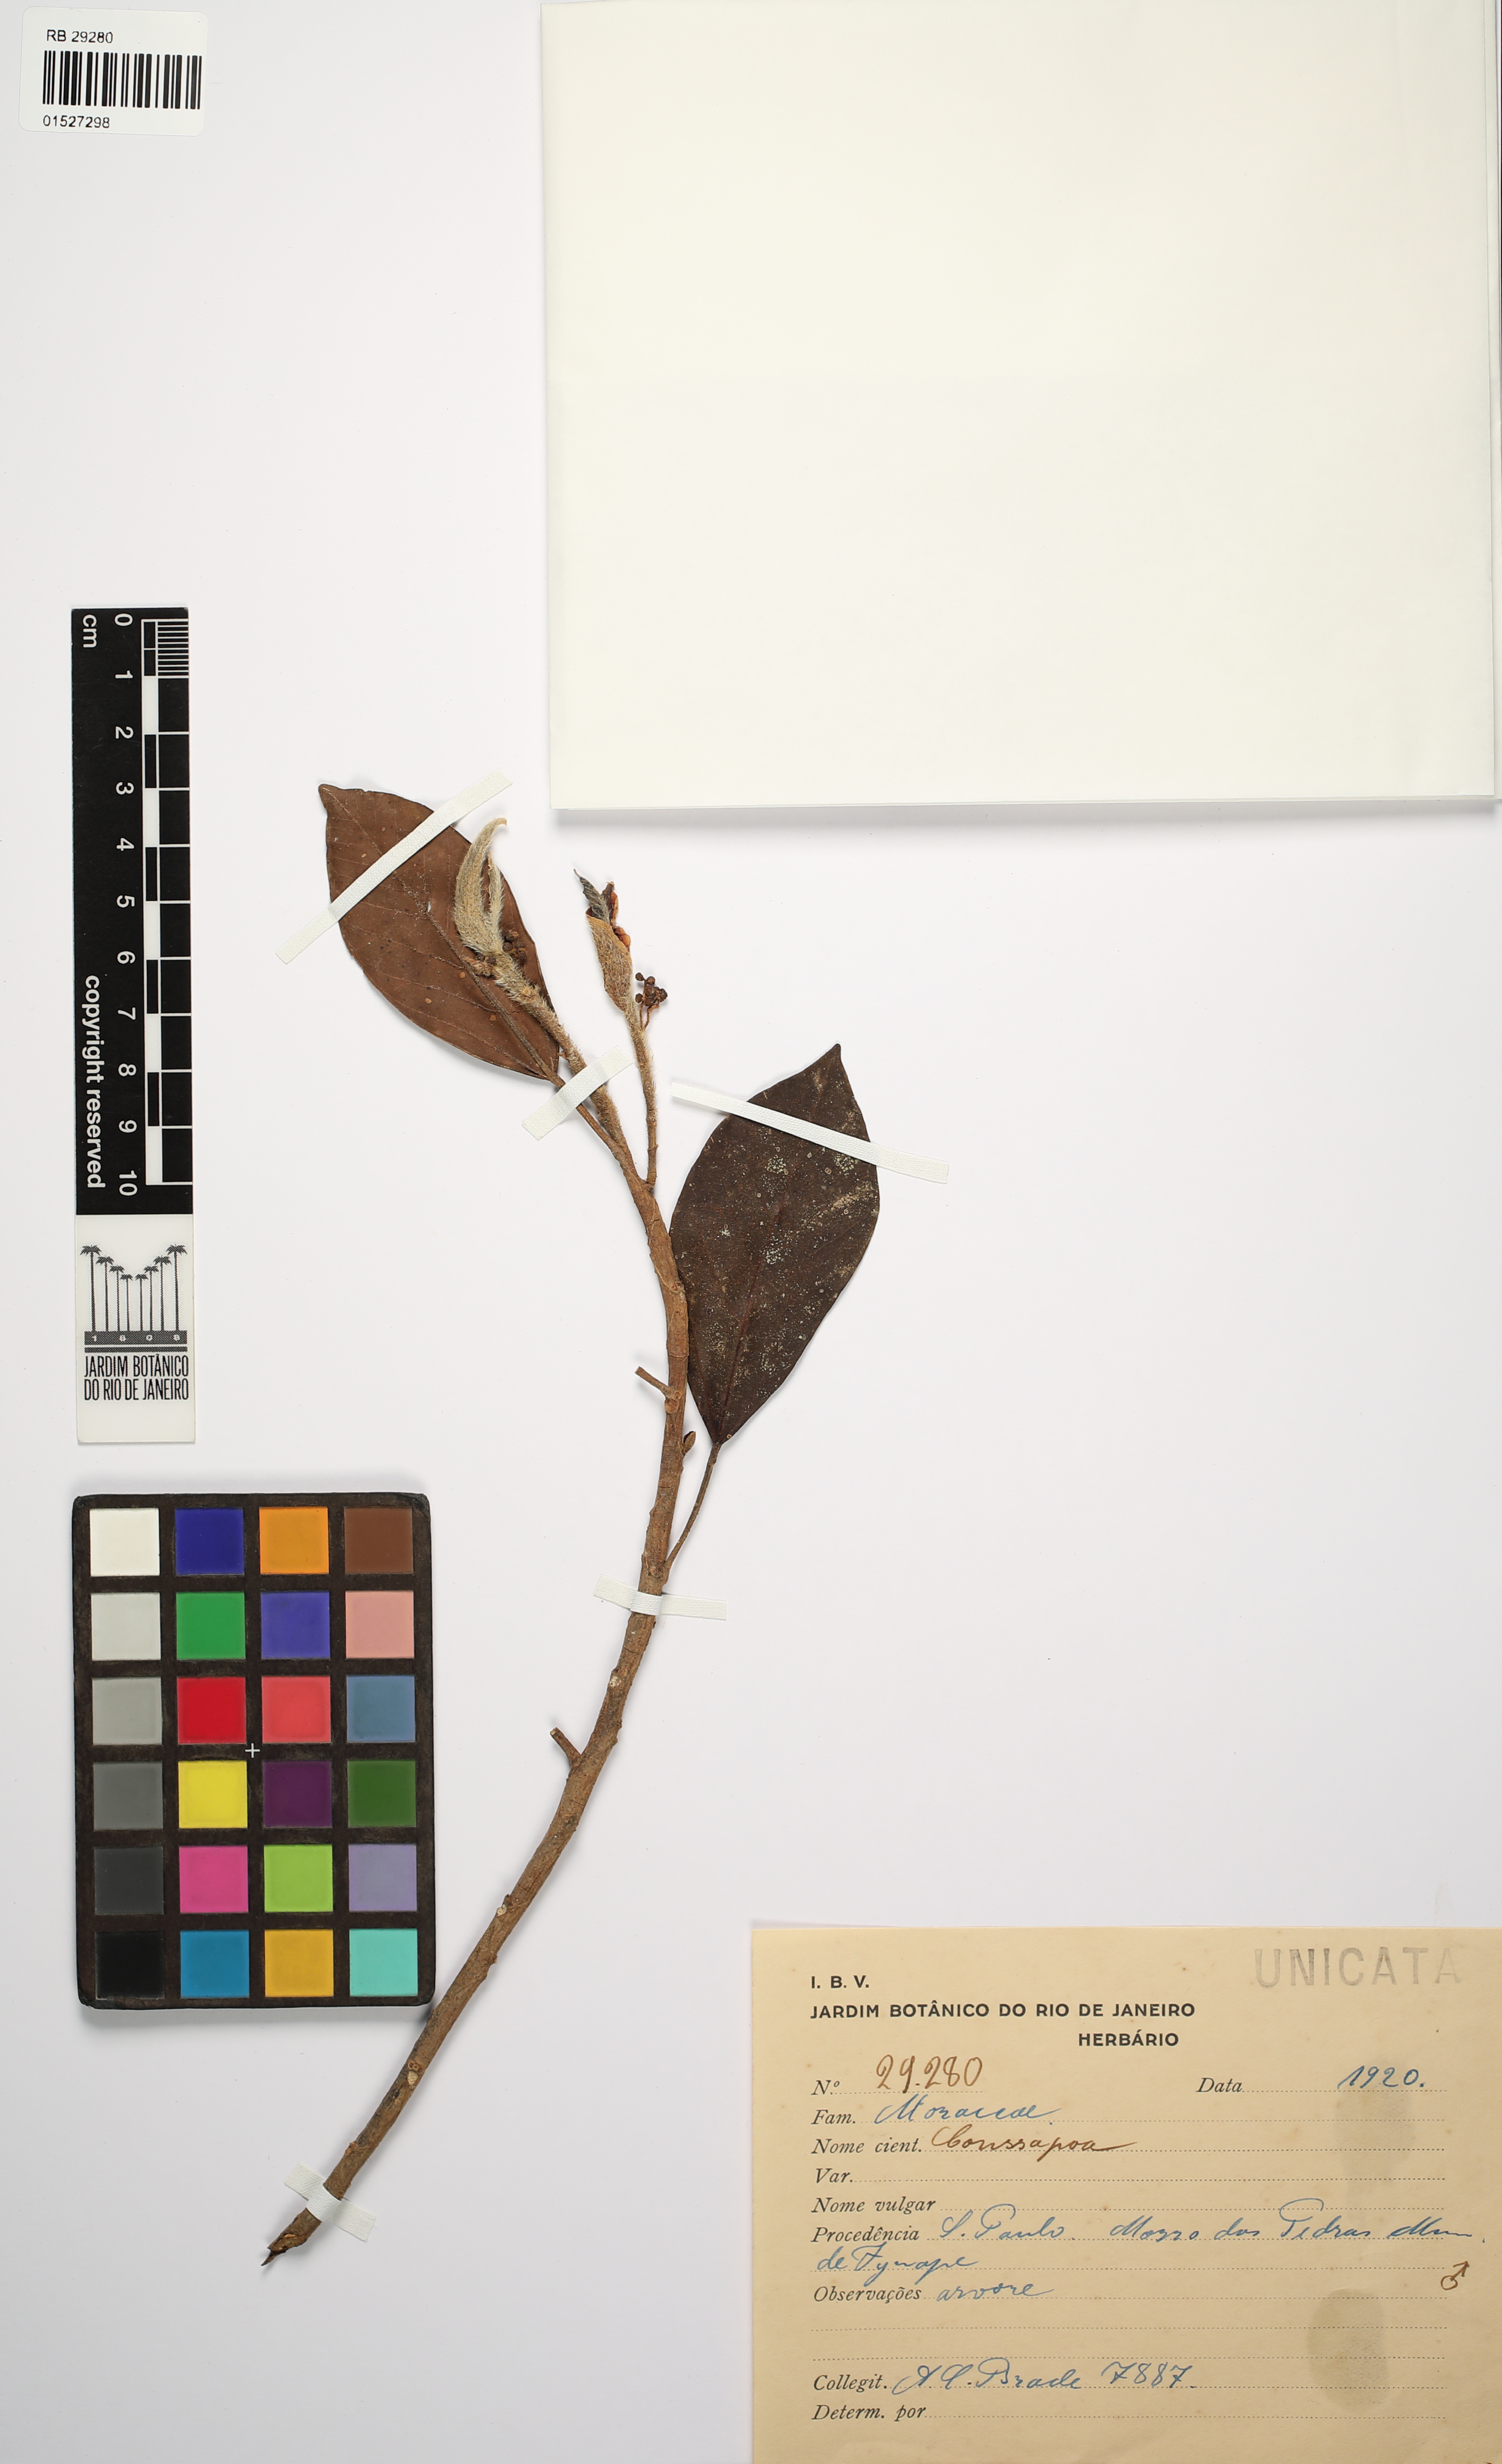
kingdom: Plantae
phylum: Tracheophyta
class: Magnoliopsida
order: Rosales
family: Urticaceae
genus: Coussapoa
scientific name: Coussapoa
